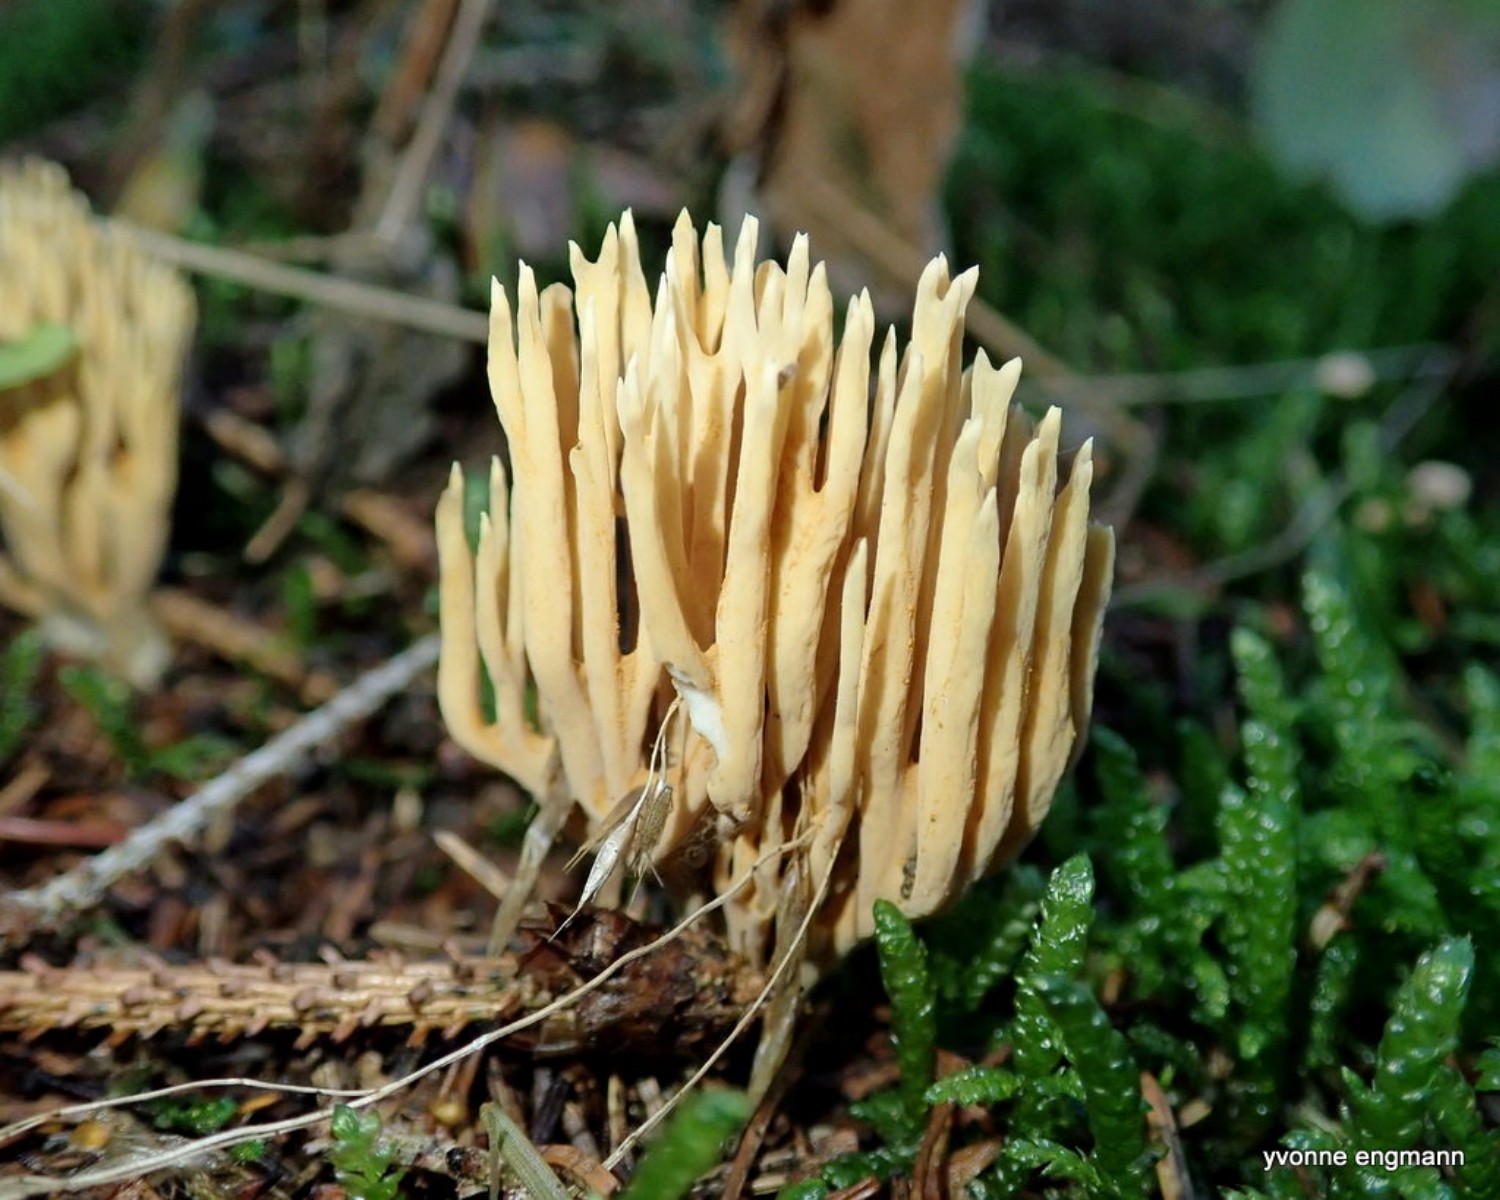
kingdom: Fungi
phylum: Basidiomycota
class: Agaricomycetes
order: Gomphales
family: Gomphaceae
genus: Phaeoclavulina
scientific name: Phaeoclavulina eumorpha
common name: gran-koralsvamp
